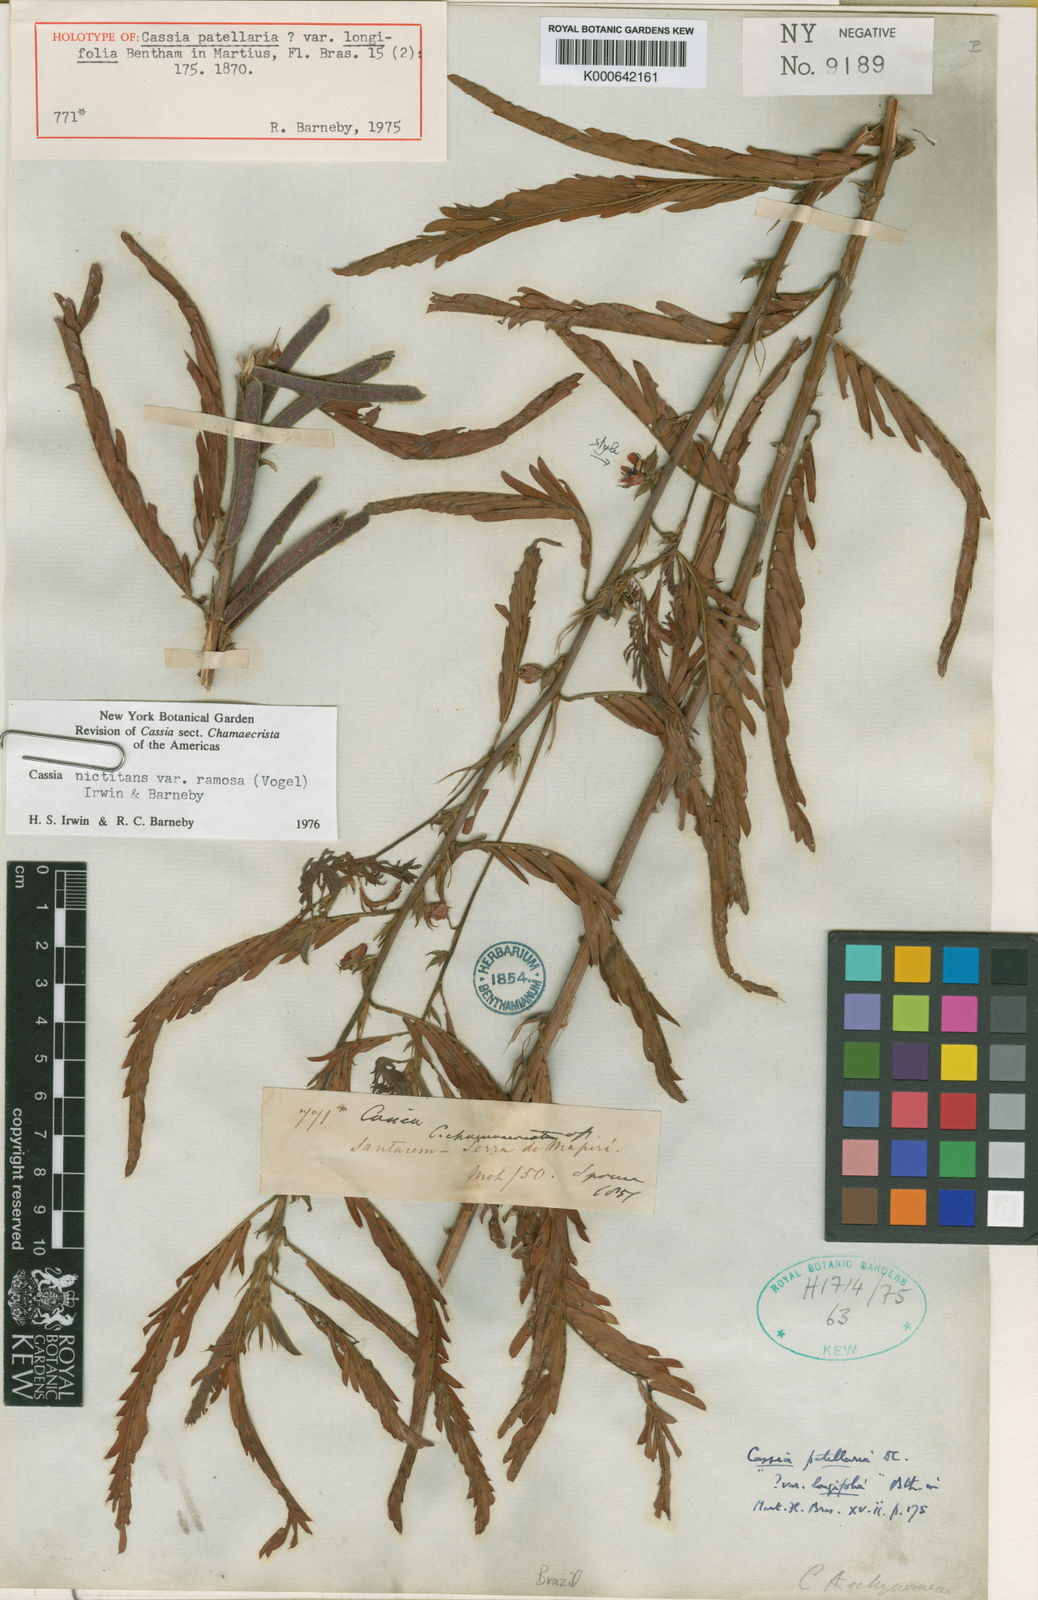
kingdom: Plantae
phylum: Tracheophyta
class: Magnoliopsida
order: Fabales
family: Fabaceae
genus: Chamaecrista
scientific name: Chamaecrista nictitans
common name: Sensitive cassia
